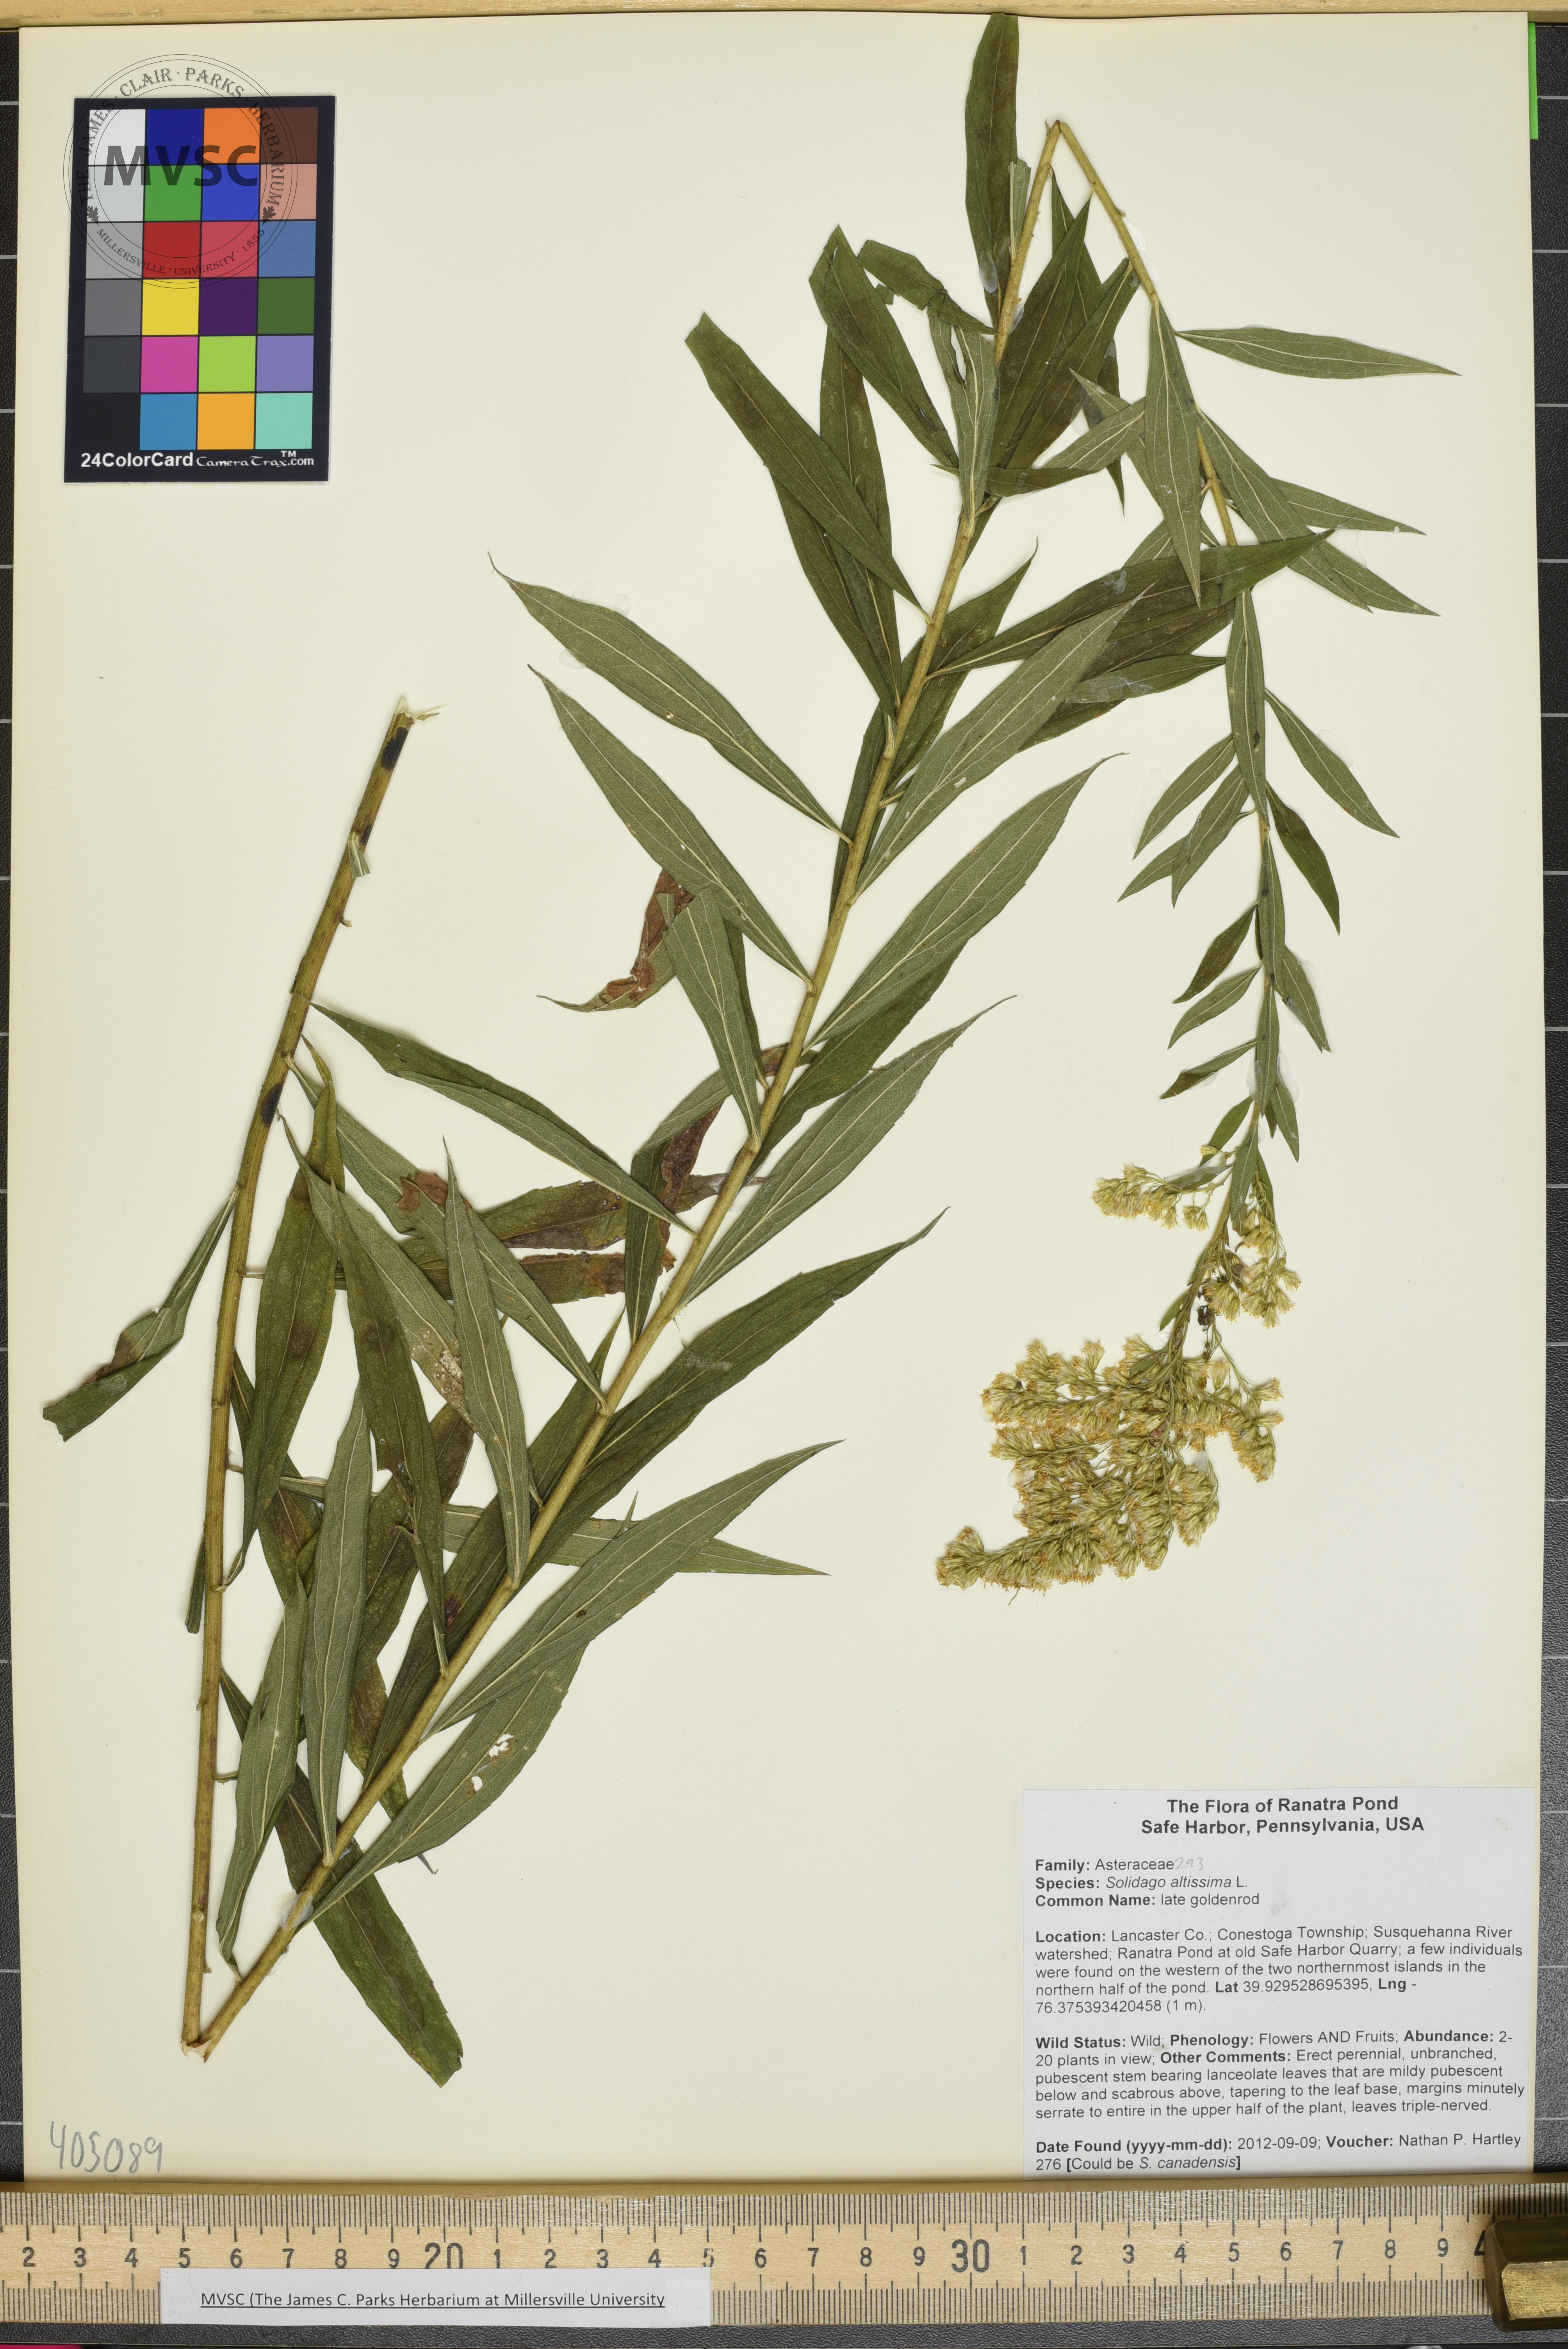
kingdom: Plantae
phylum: Tracheophyta
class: Magnoliopsida
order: Asterales
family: Asteraceae
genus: Solidago
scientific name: Solidago altissima
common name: late goldenrod
